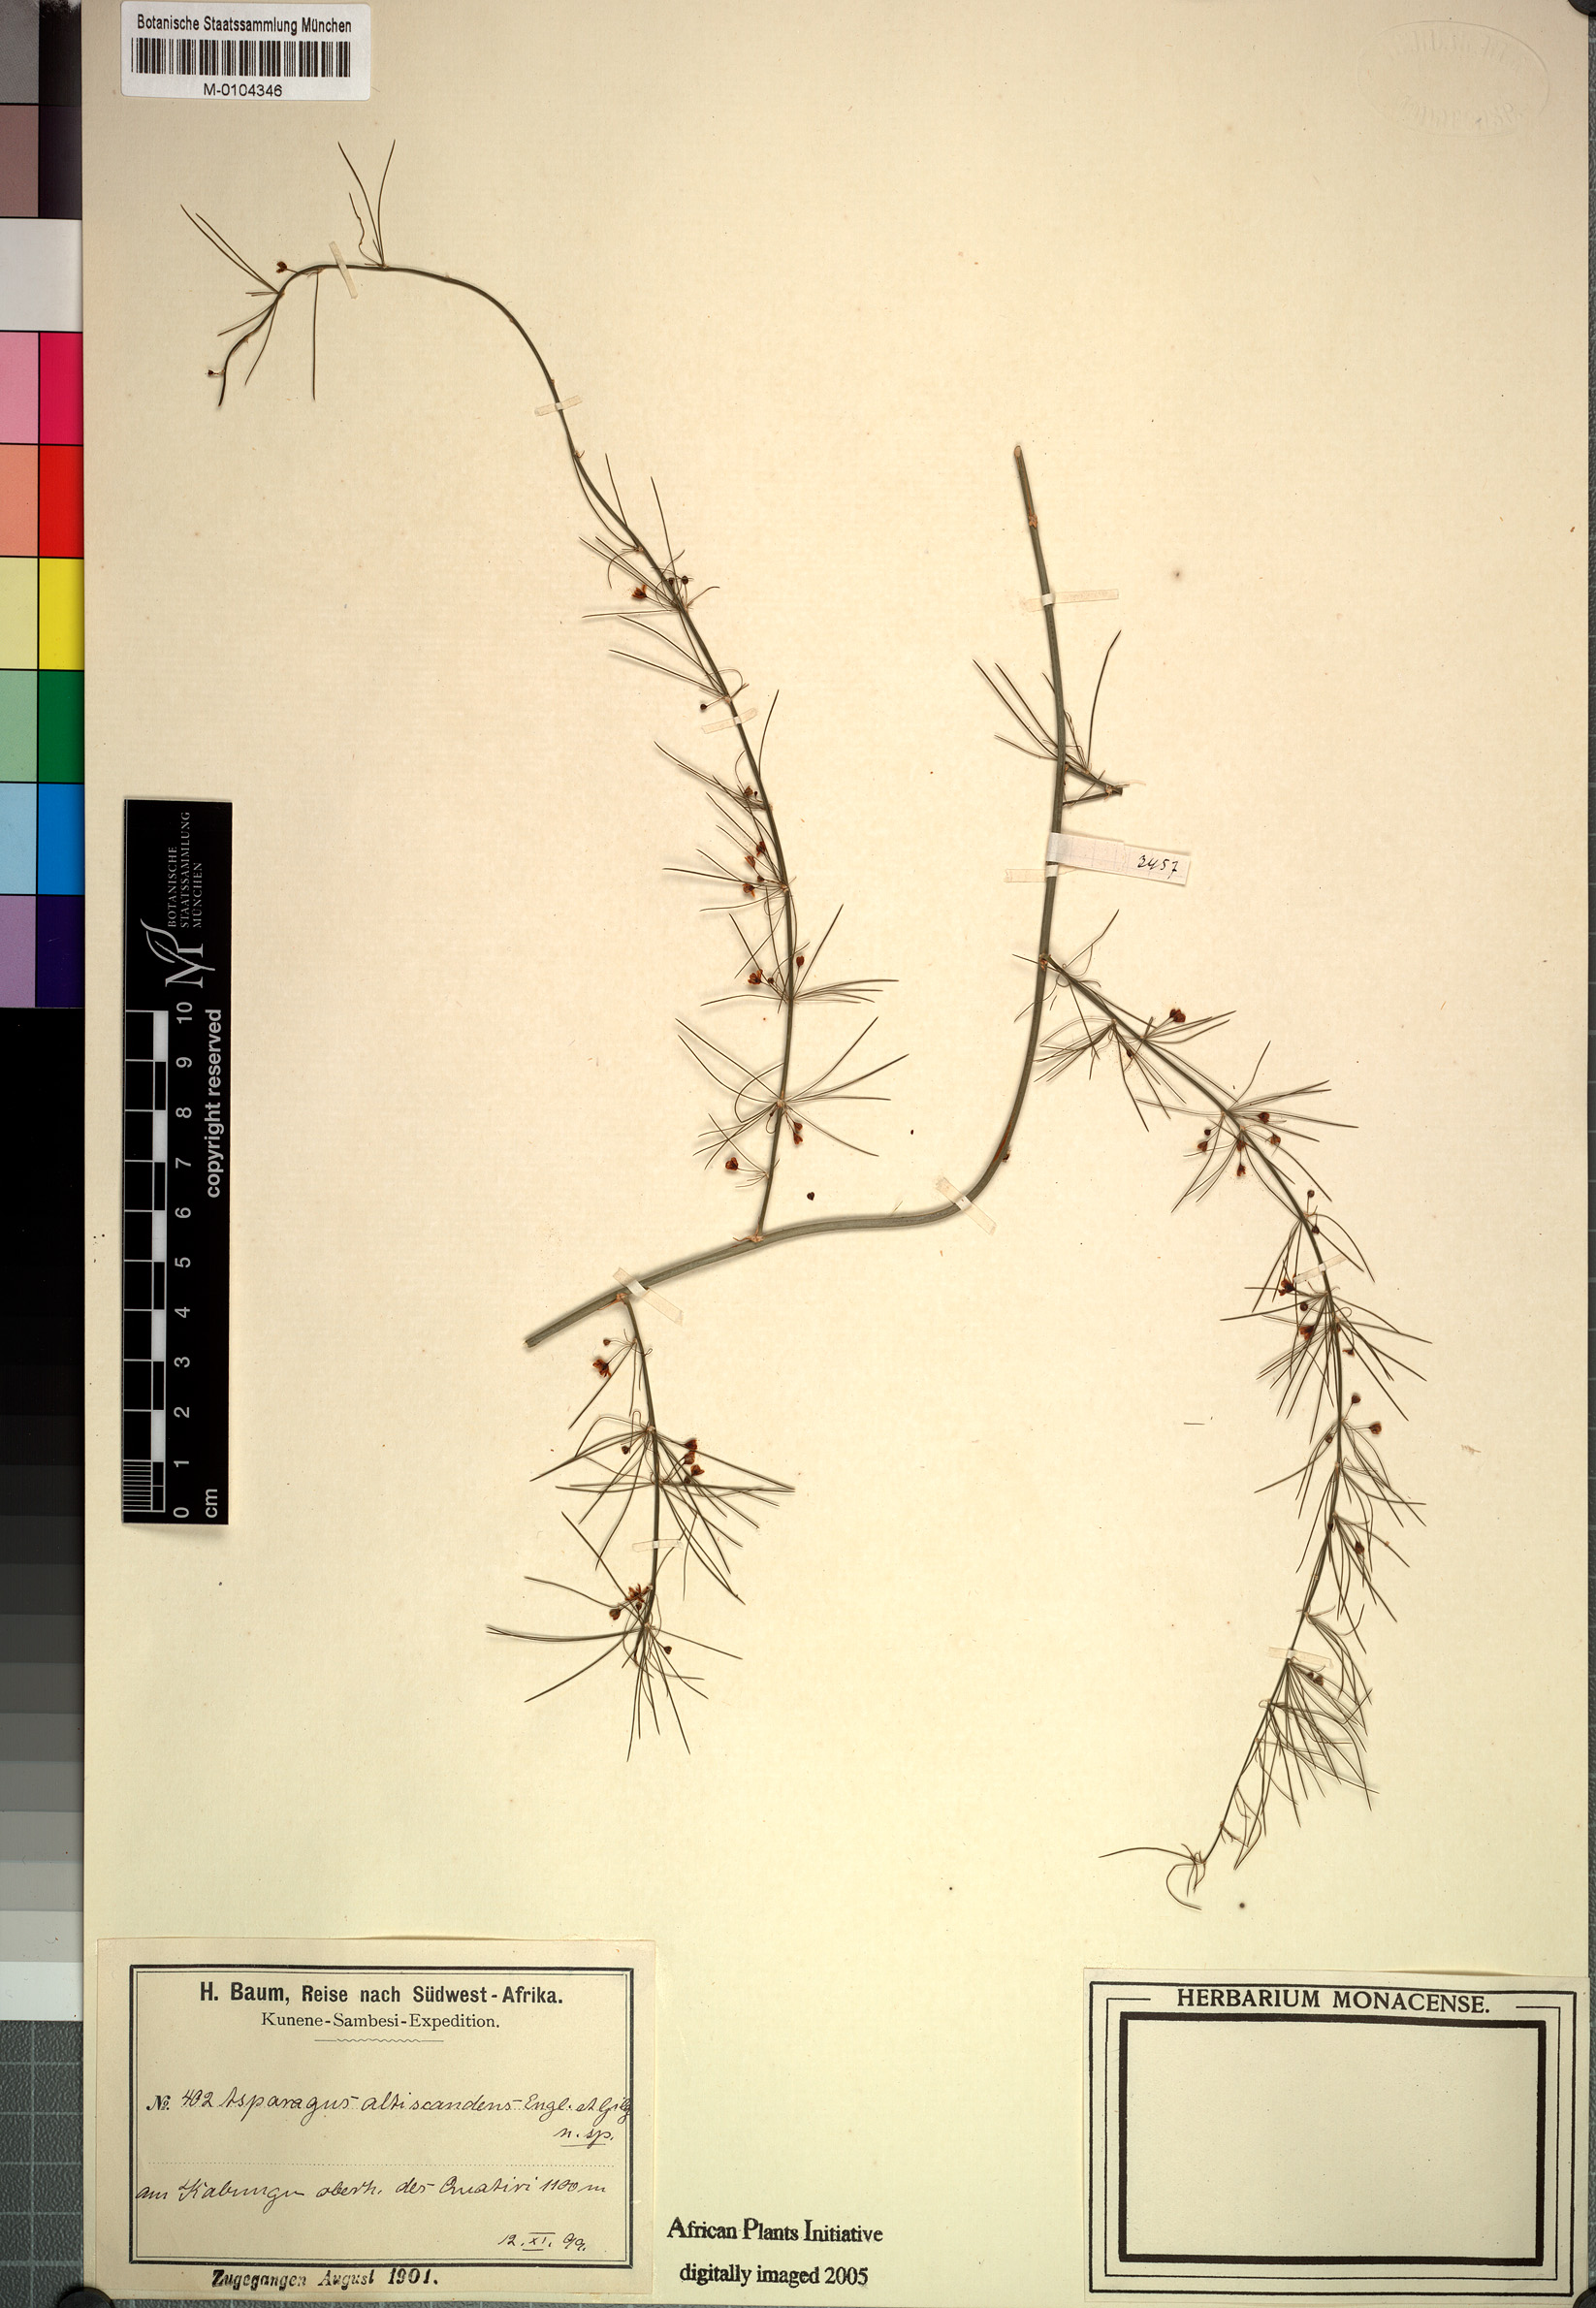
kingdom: Plantae
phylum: Tracheophyta
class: Liliopsida
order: Asparagales
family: Asparagaceae
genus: Asparagus
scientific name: Asparagus altiscandens
